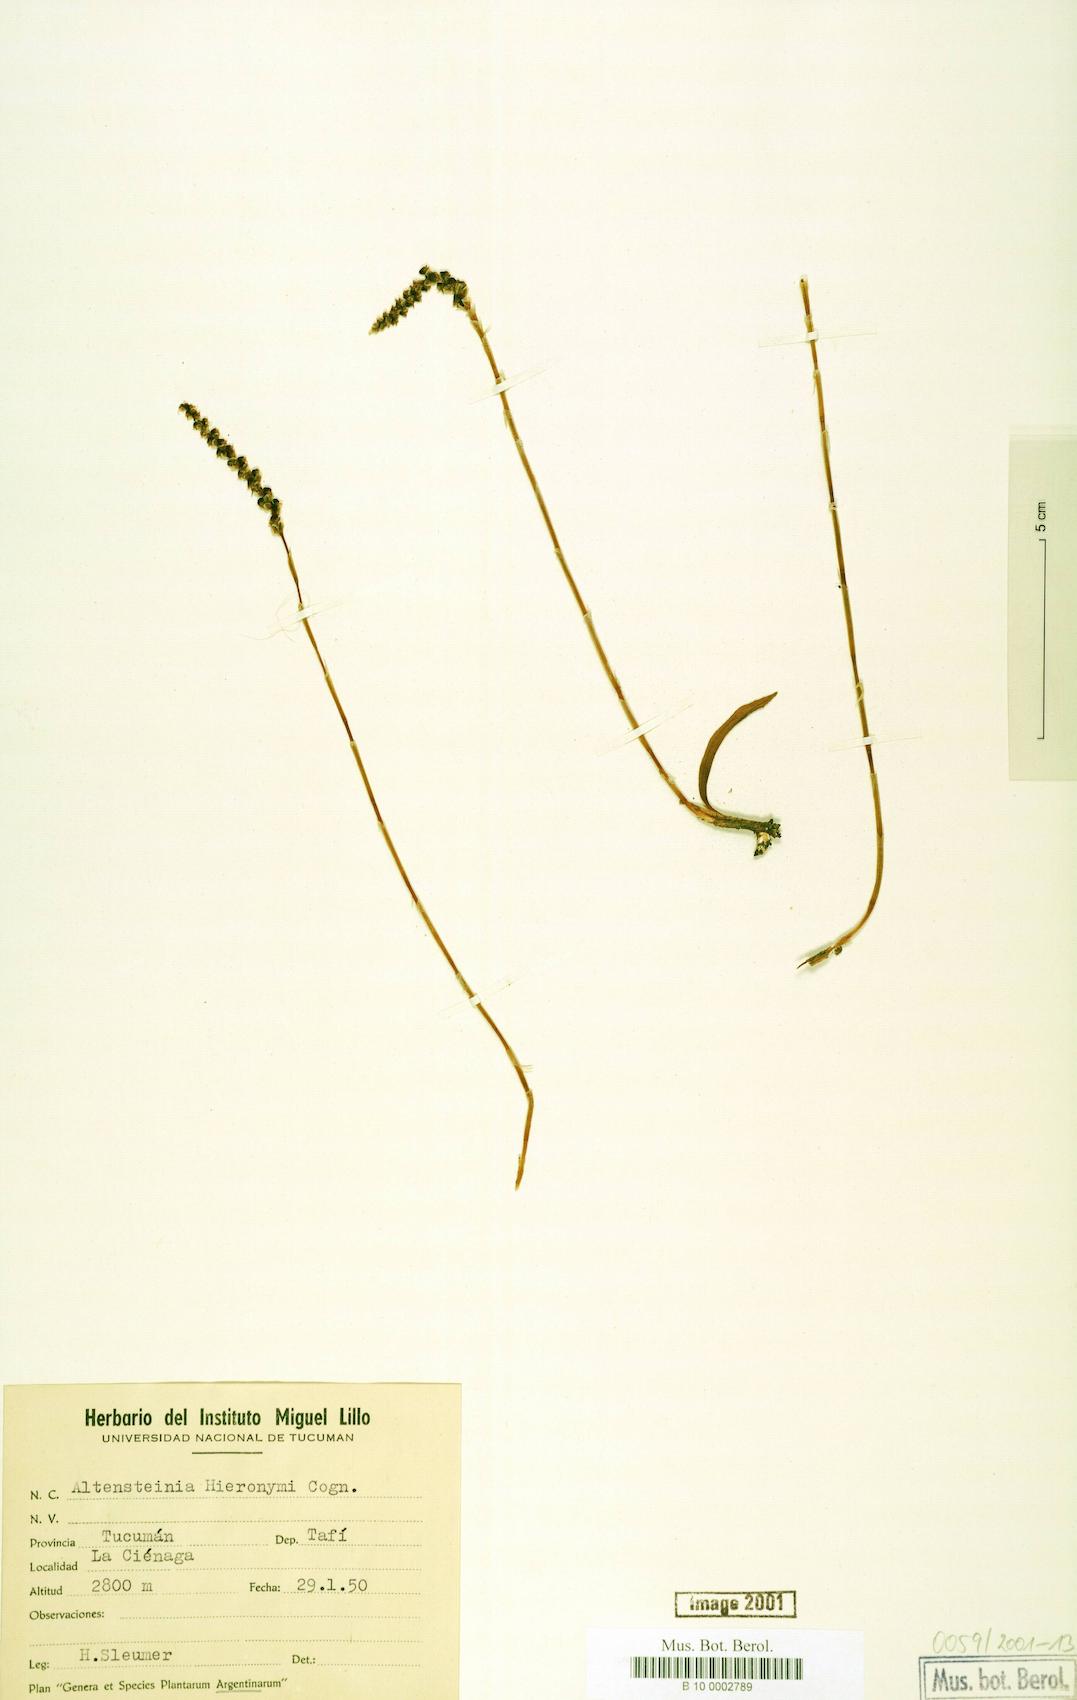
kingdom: Plantae
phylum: Tracheophyta
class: Liliopsida
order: Asparagales
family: Orchidaceae
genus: Aa
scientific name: Aa hieronymi
